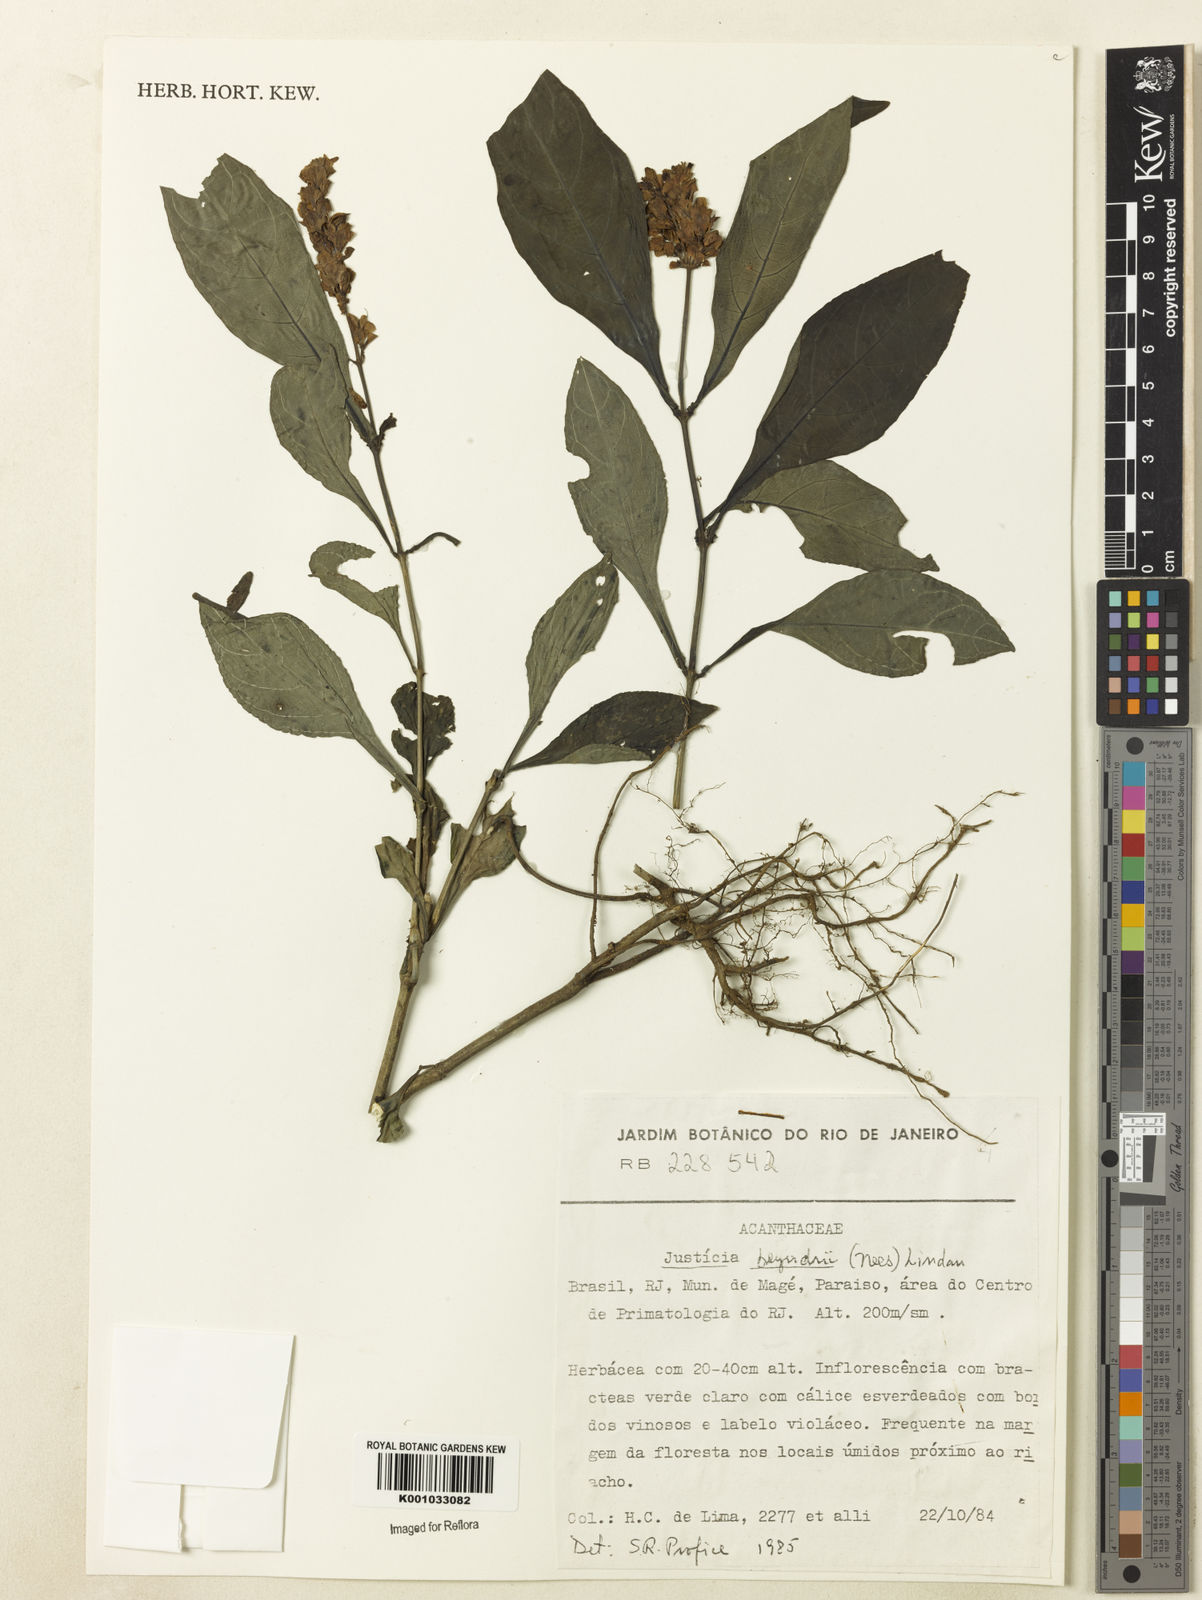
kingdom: Plantae
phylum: Tracheophyta
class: Magnoliopsida
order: Lamiales
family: Acanthaceae
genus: Dianthera
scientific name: Dianthera brasiliensis
